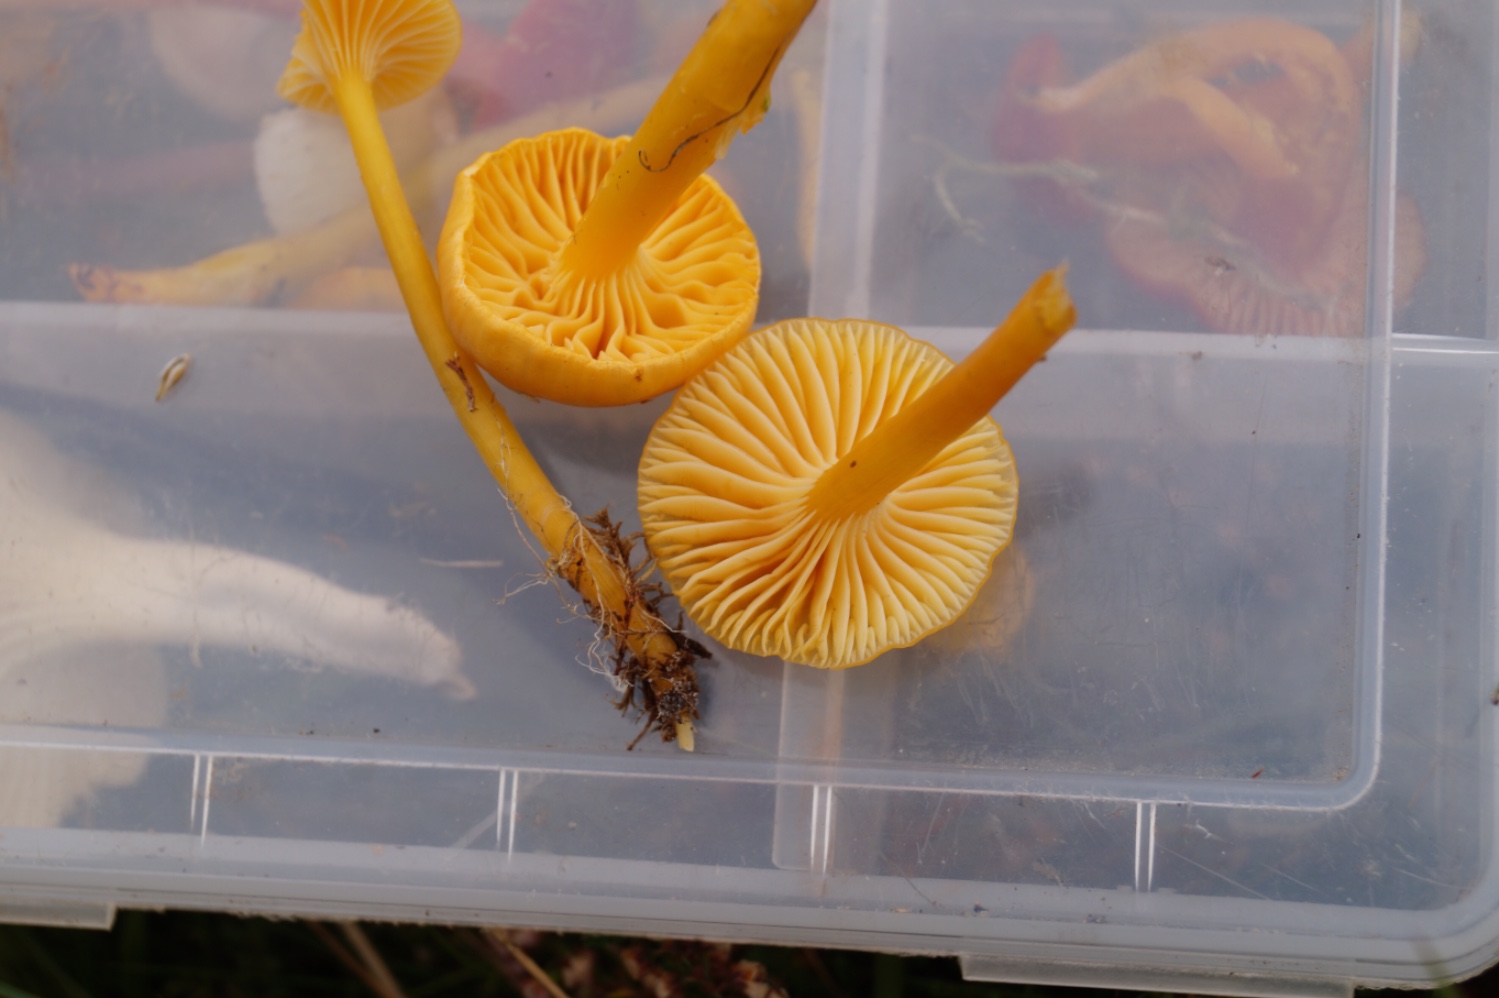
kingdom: Fungi
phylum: Basidiomycota
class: Agaricomycetes
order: Agaricales
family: Hygrophoraceae
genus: Gliophorus
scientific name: Gliophorus laetus
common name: Heath waxcap
